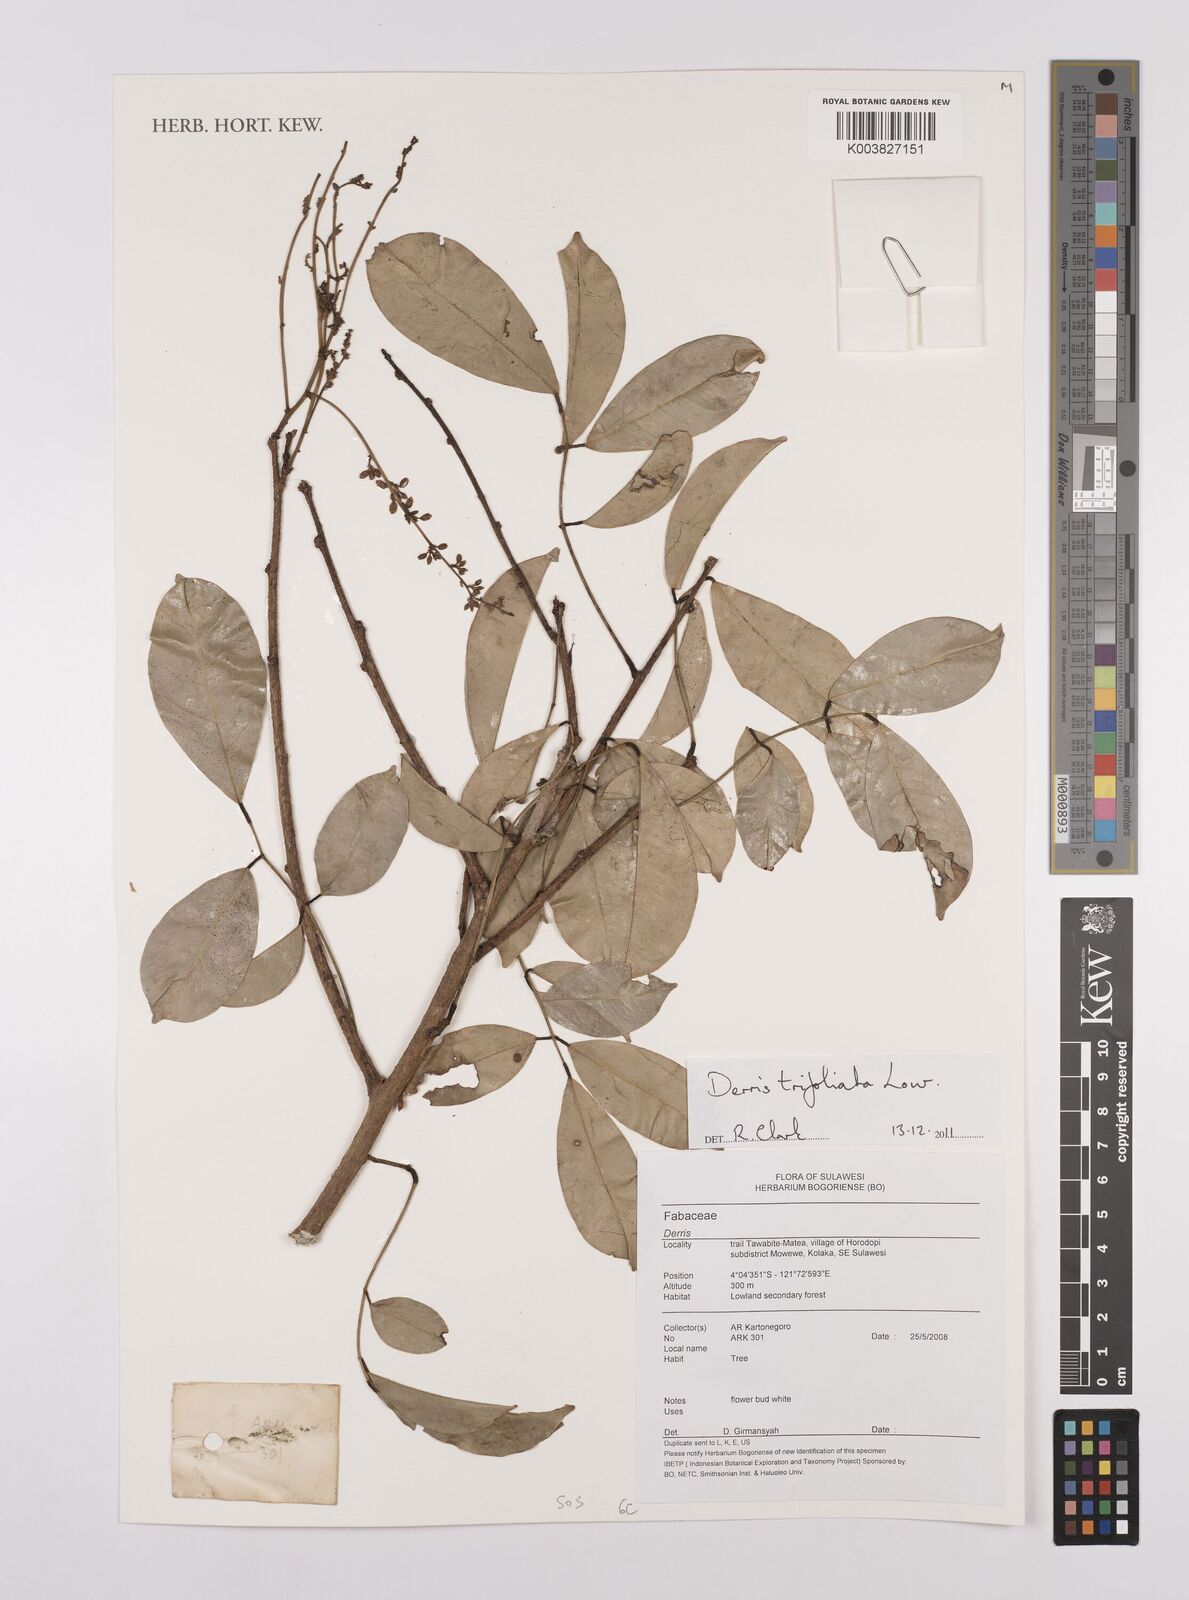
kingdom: Plantae
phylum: Tracheophyta
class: Magnoliopsida
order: Fabales
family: Fabaceae
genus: Derris
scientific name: Derris trifoliata
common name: Three-leaf derris
